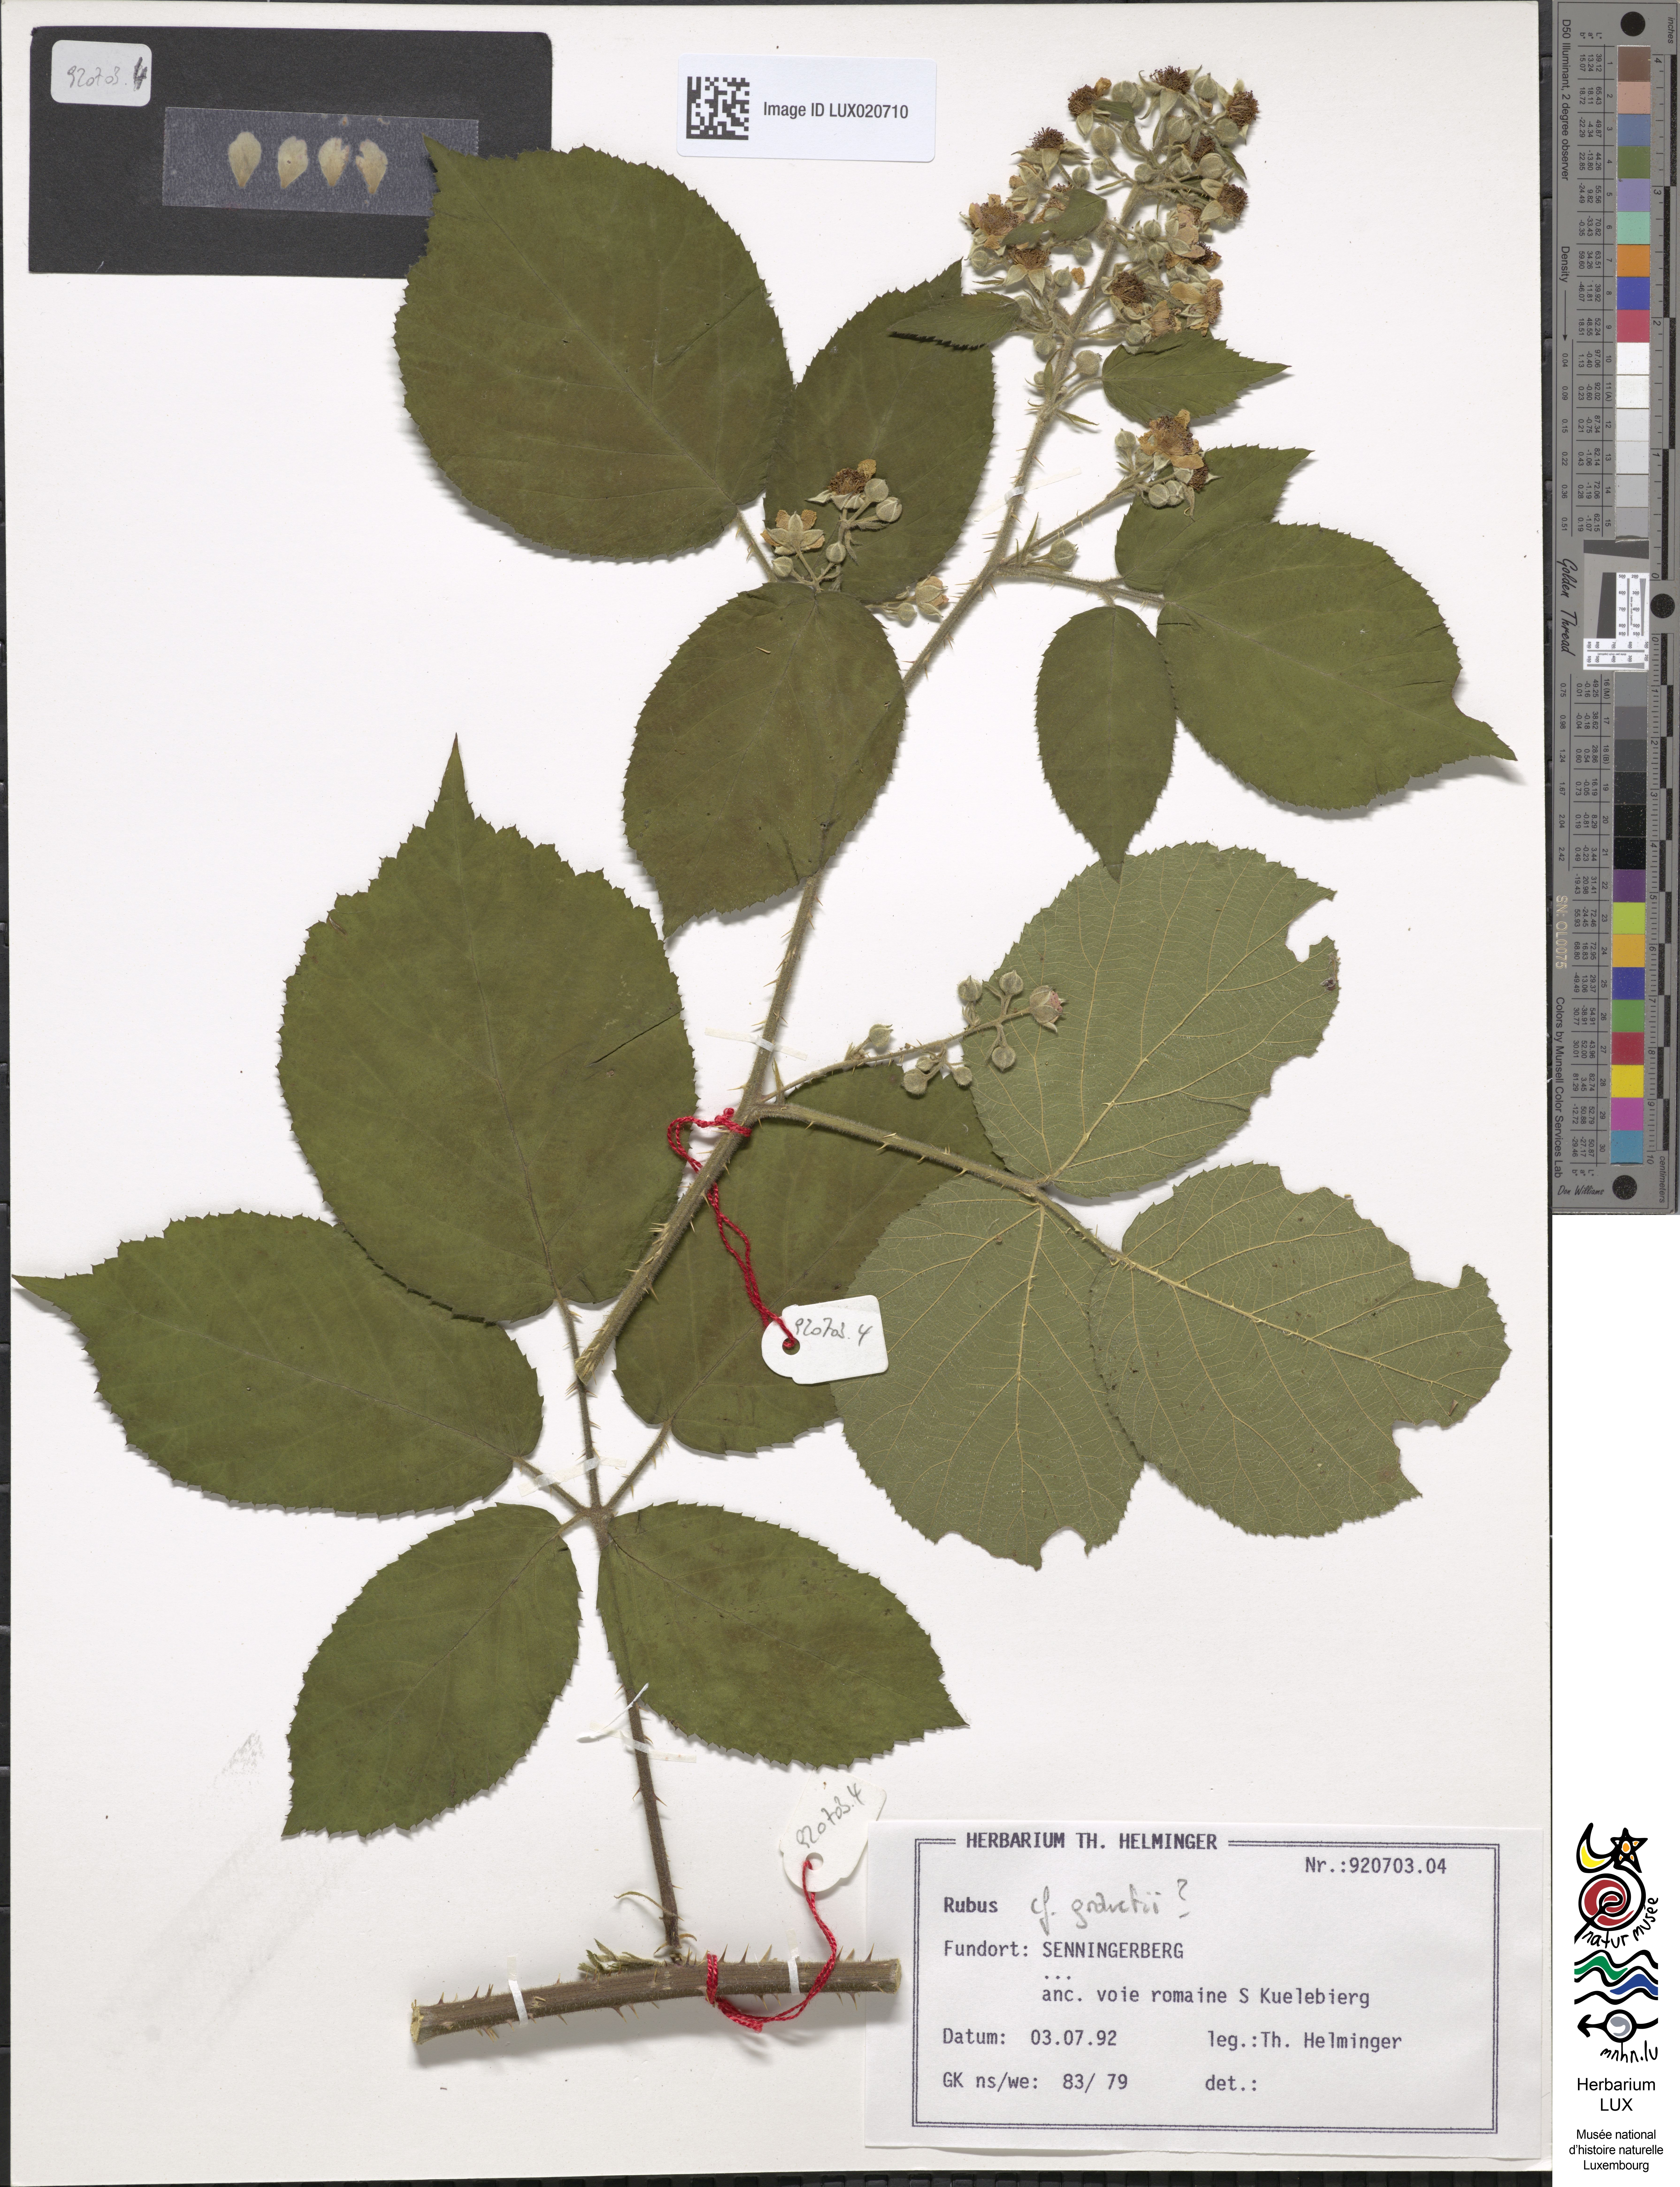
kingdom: Plantae
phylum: Tracheophyta
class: Magnoliopsida
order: Rosales
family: Rosaceae
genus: Rubus
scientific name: Rubus
